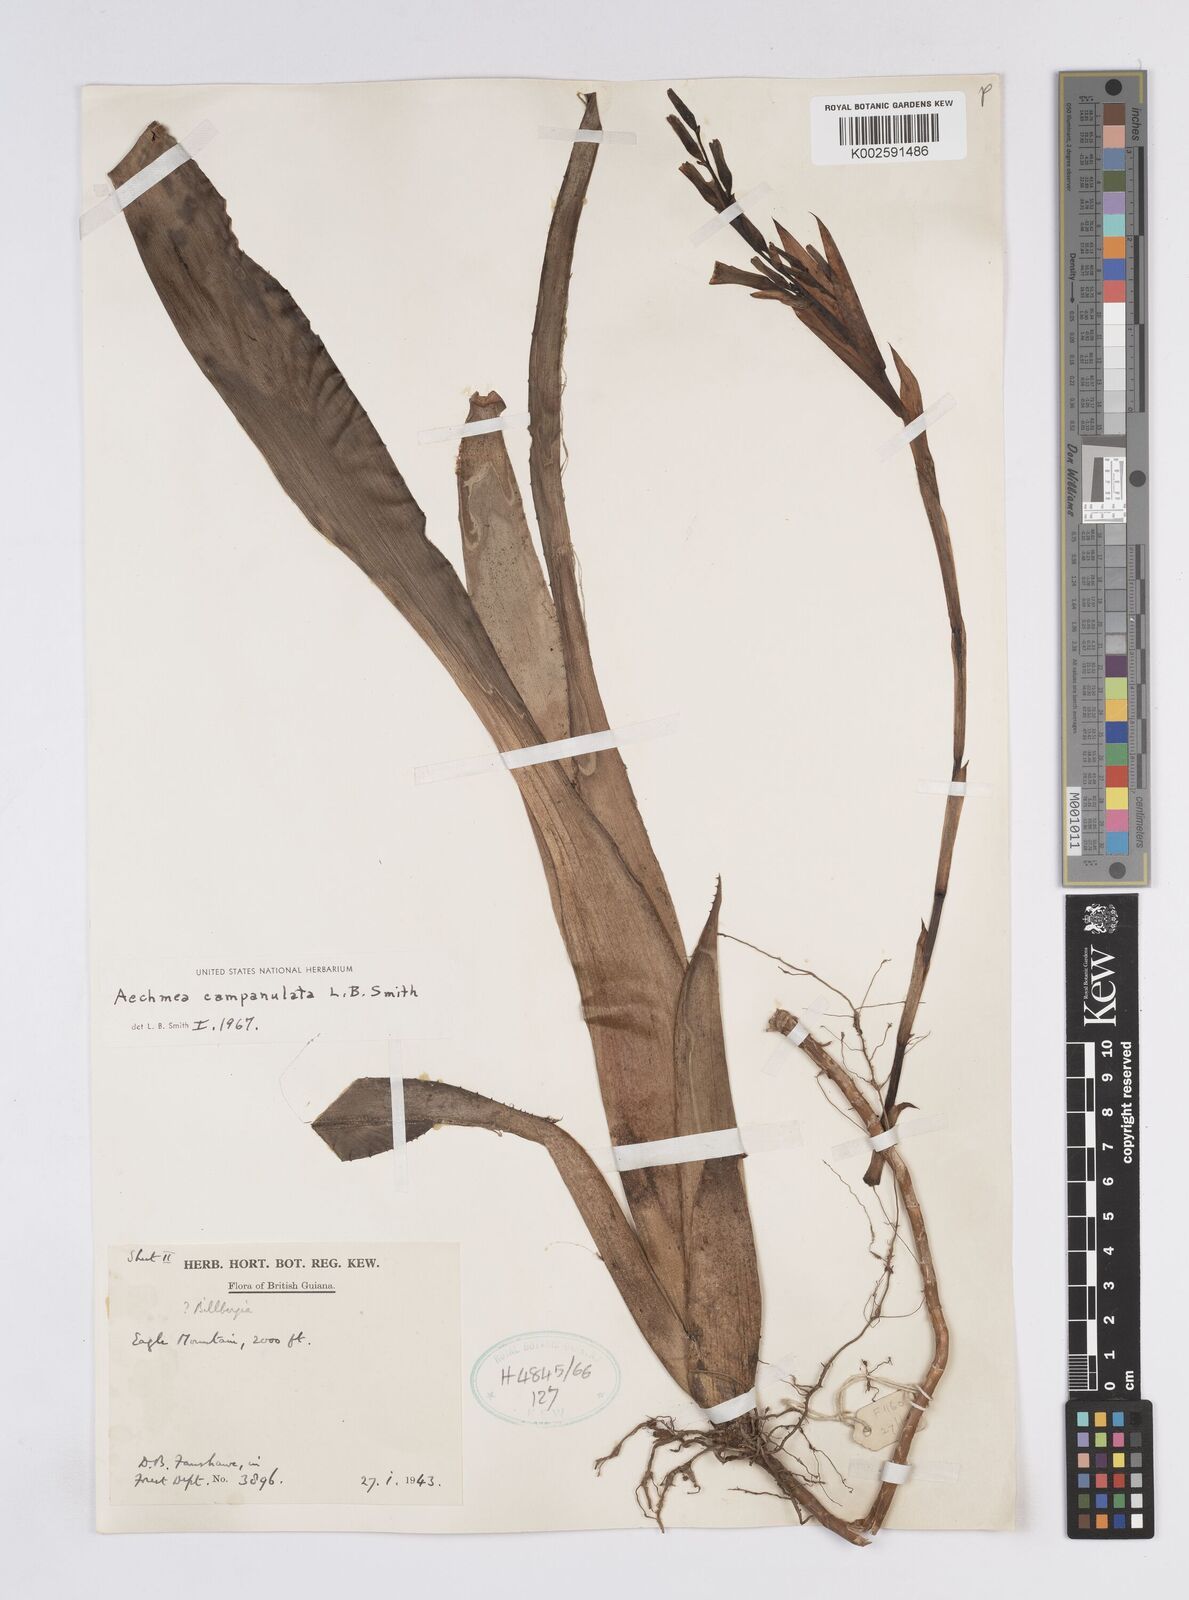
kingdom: Plantae
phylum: Tracheophyta
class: Liliopsida
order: Poales
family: Bromeliaceae
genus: Aechmea
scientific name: Aechmea campanulata
